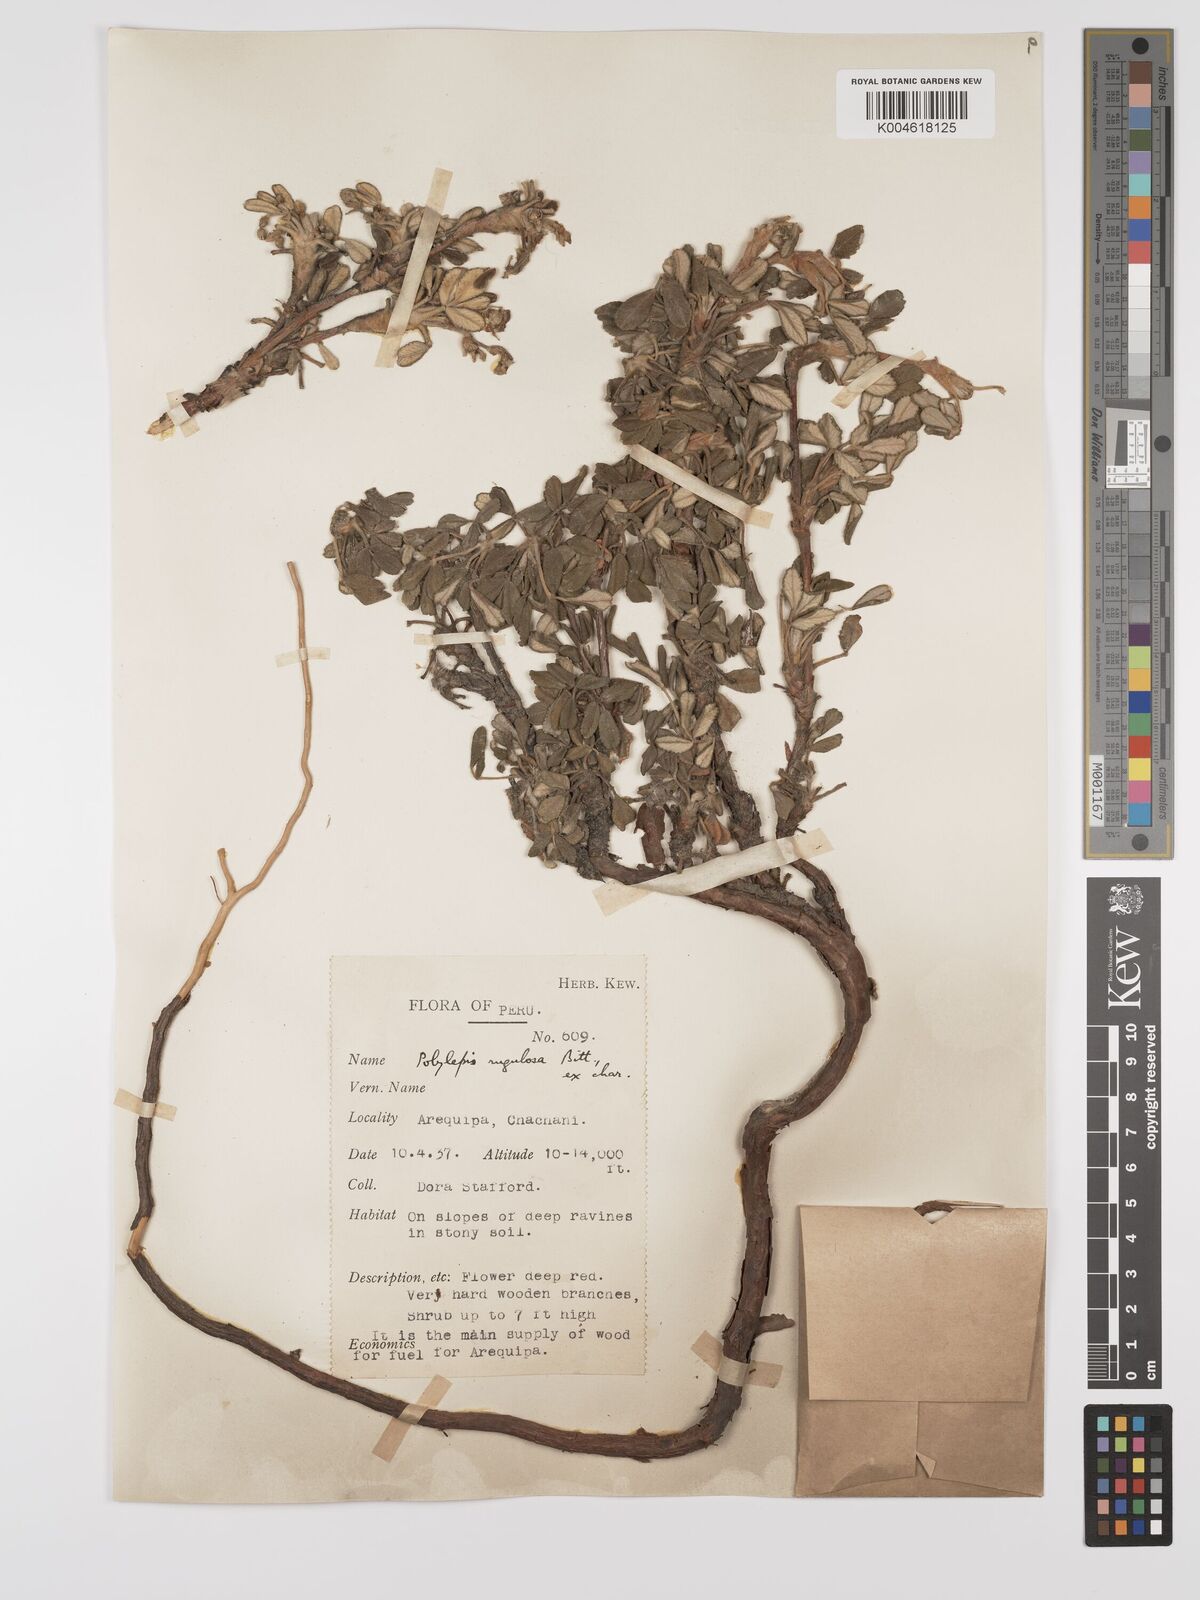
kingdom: Plantae
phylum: Tracheophyta
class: Magnoliopsida
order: Rosales
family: Rosaceae
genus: Polylepis
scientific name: Polylepis
